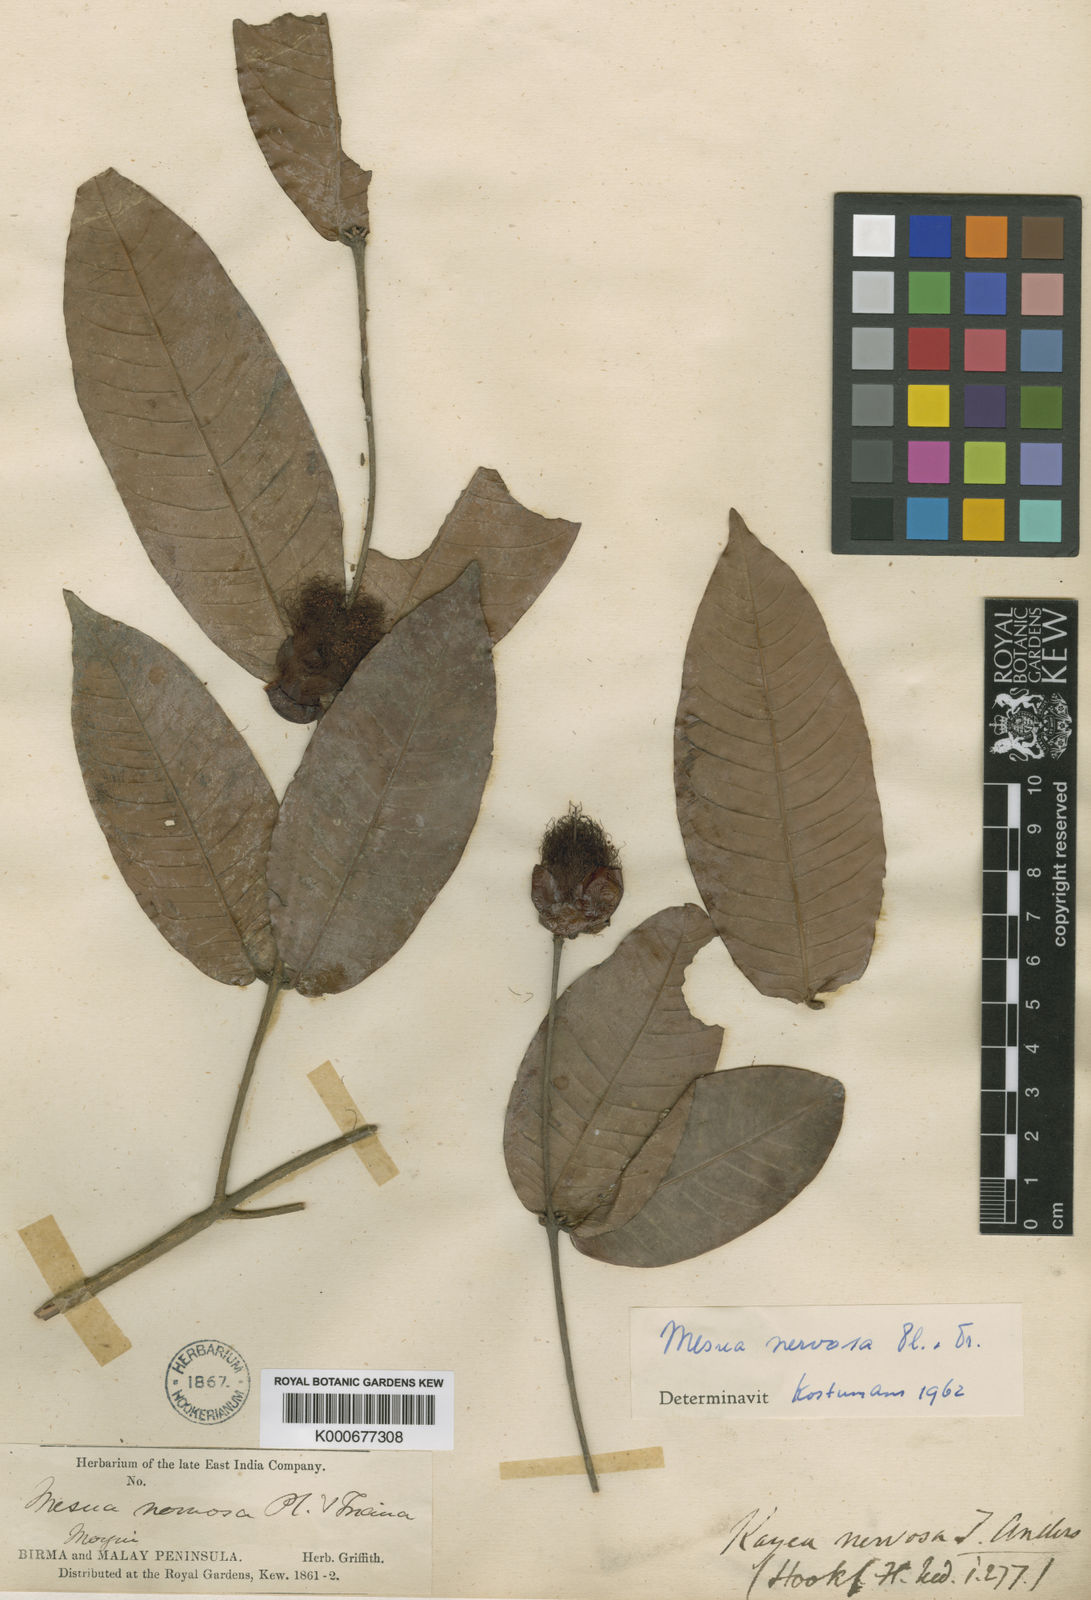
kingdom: Plantae
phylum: Tracheophyta
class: Magnoliopsida
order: Malpighiales
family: Calophyllaceae
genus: Kayea
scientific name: Kayea nervosa
